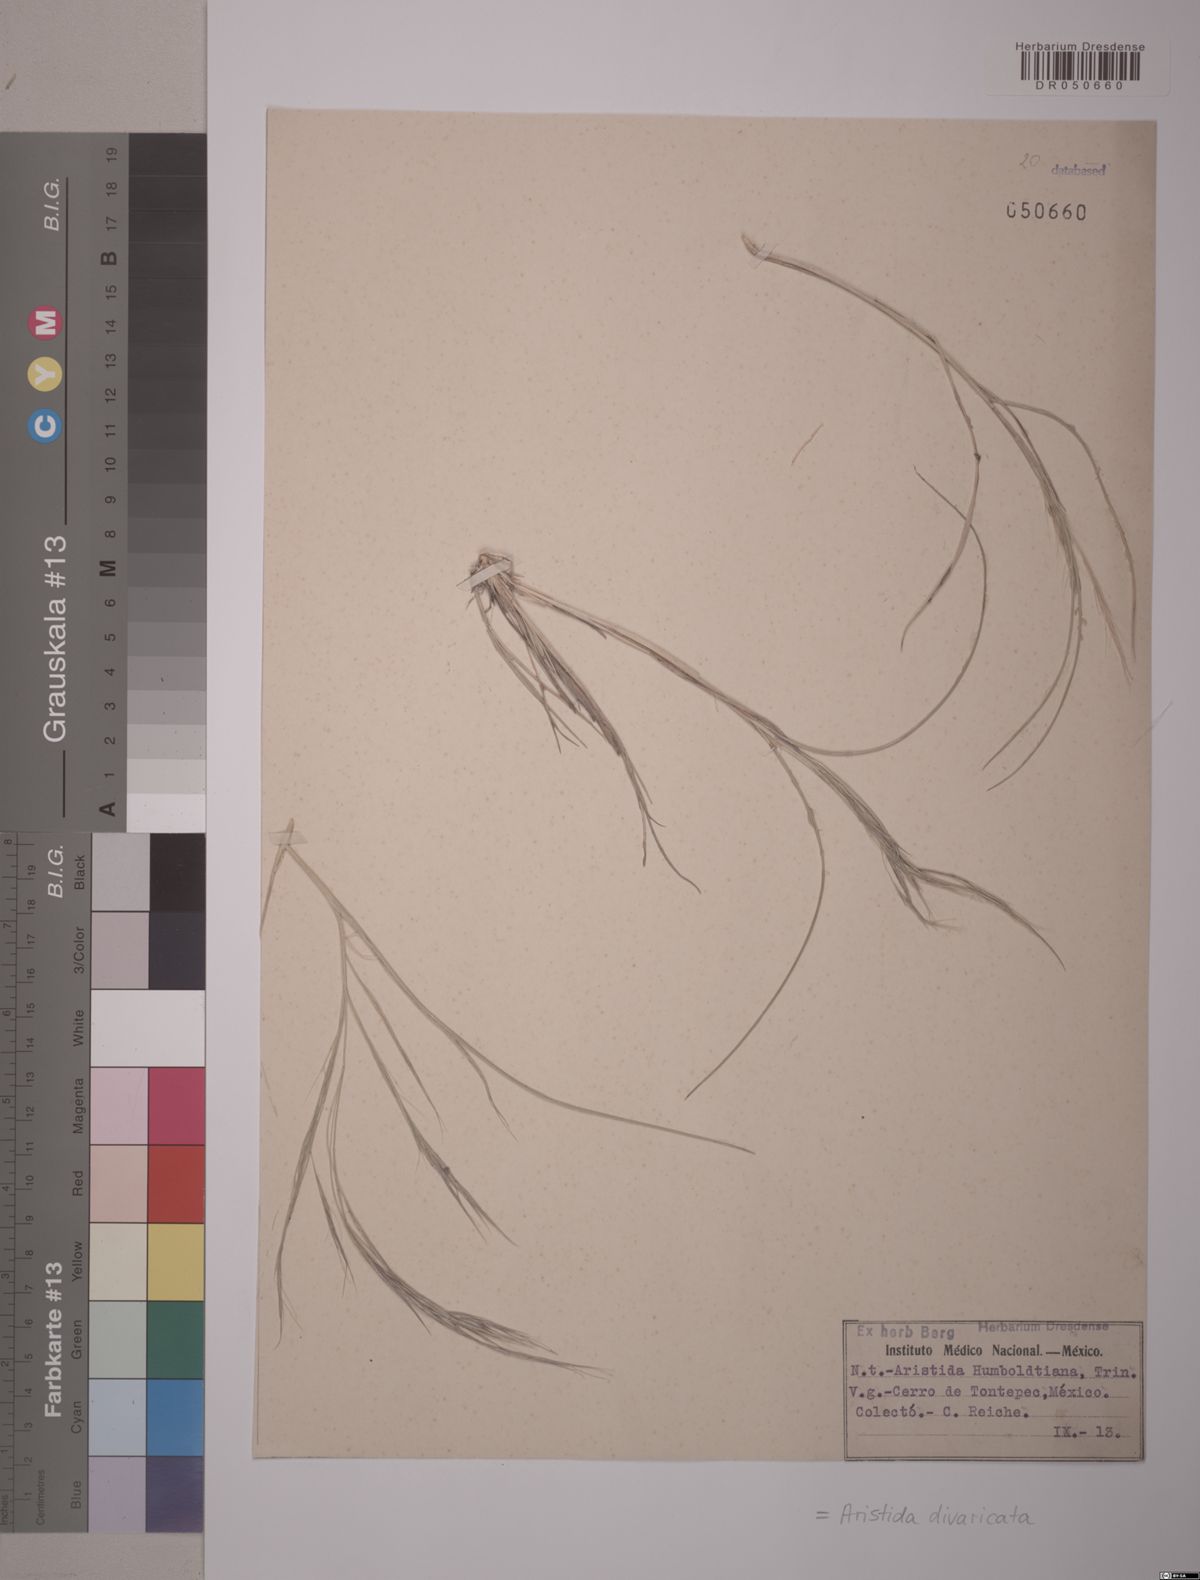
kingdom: Plantae
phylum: Tracheophyta
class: Liliopsida
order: Poales
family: Poaceae
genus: Aristida
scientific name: Aristida divaricata
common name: Poverty grass
